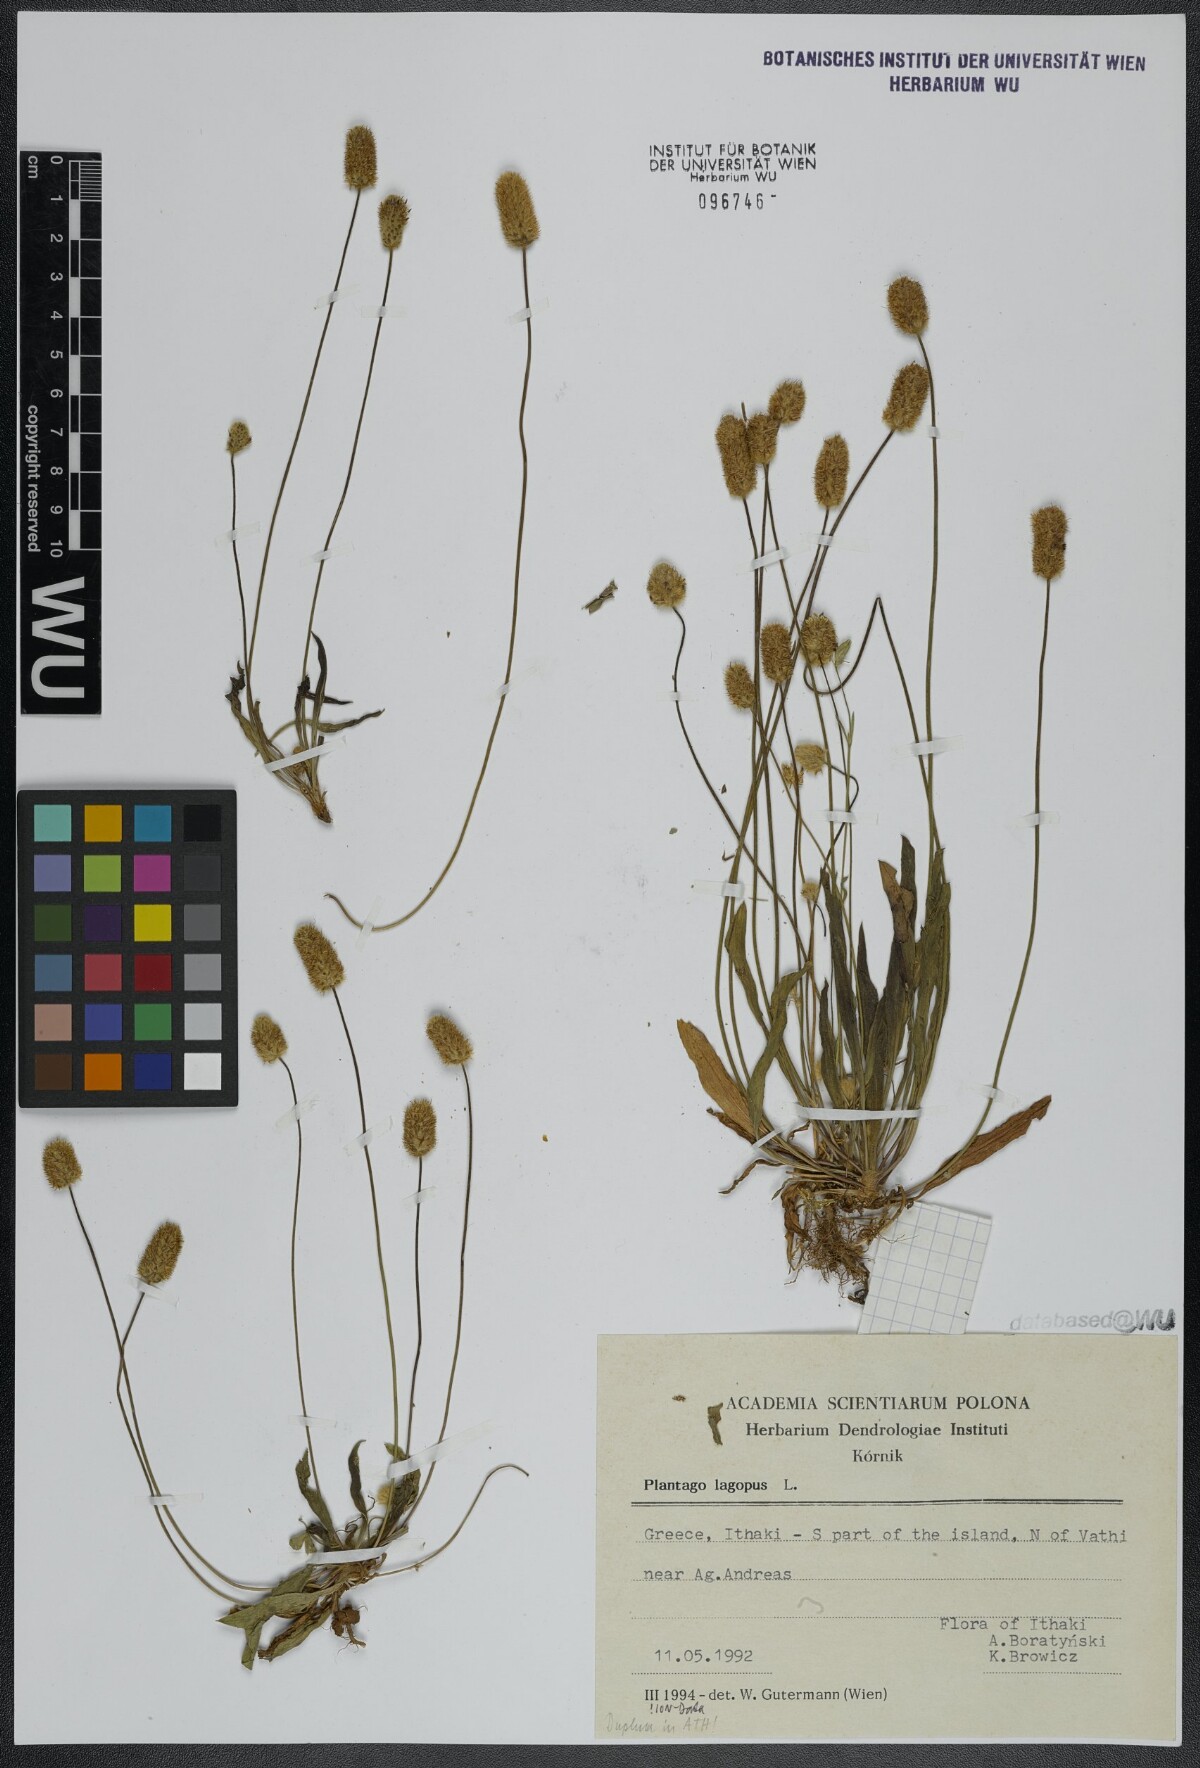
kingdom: Plantae
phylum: Tracheophyta
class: Magnoliopsida
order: Lamiales
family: Plantaginaceae
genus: Plantago
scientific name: Plantago lagopus
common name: Hare-foot plantain
